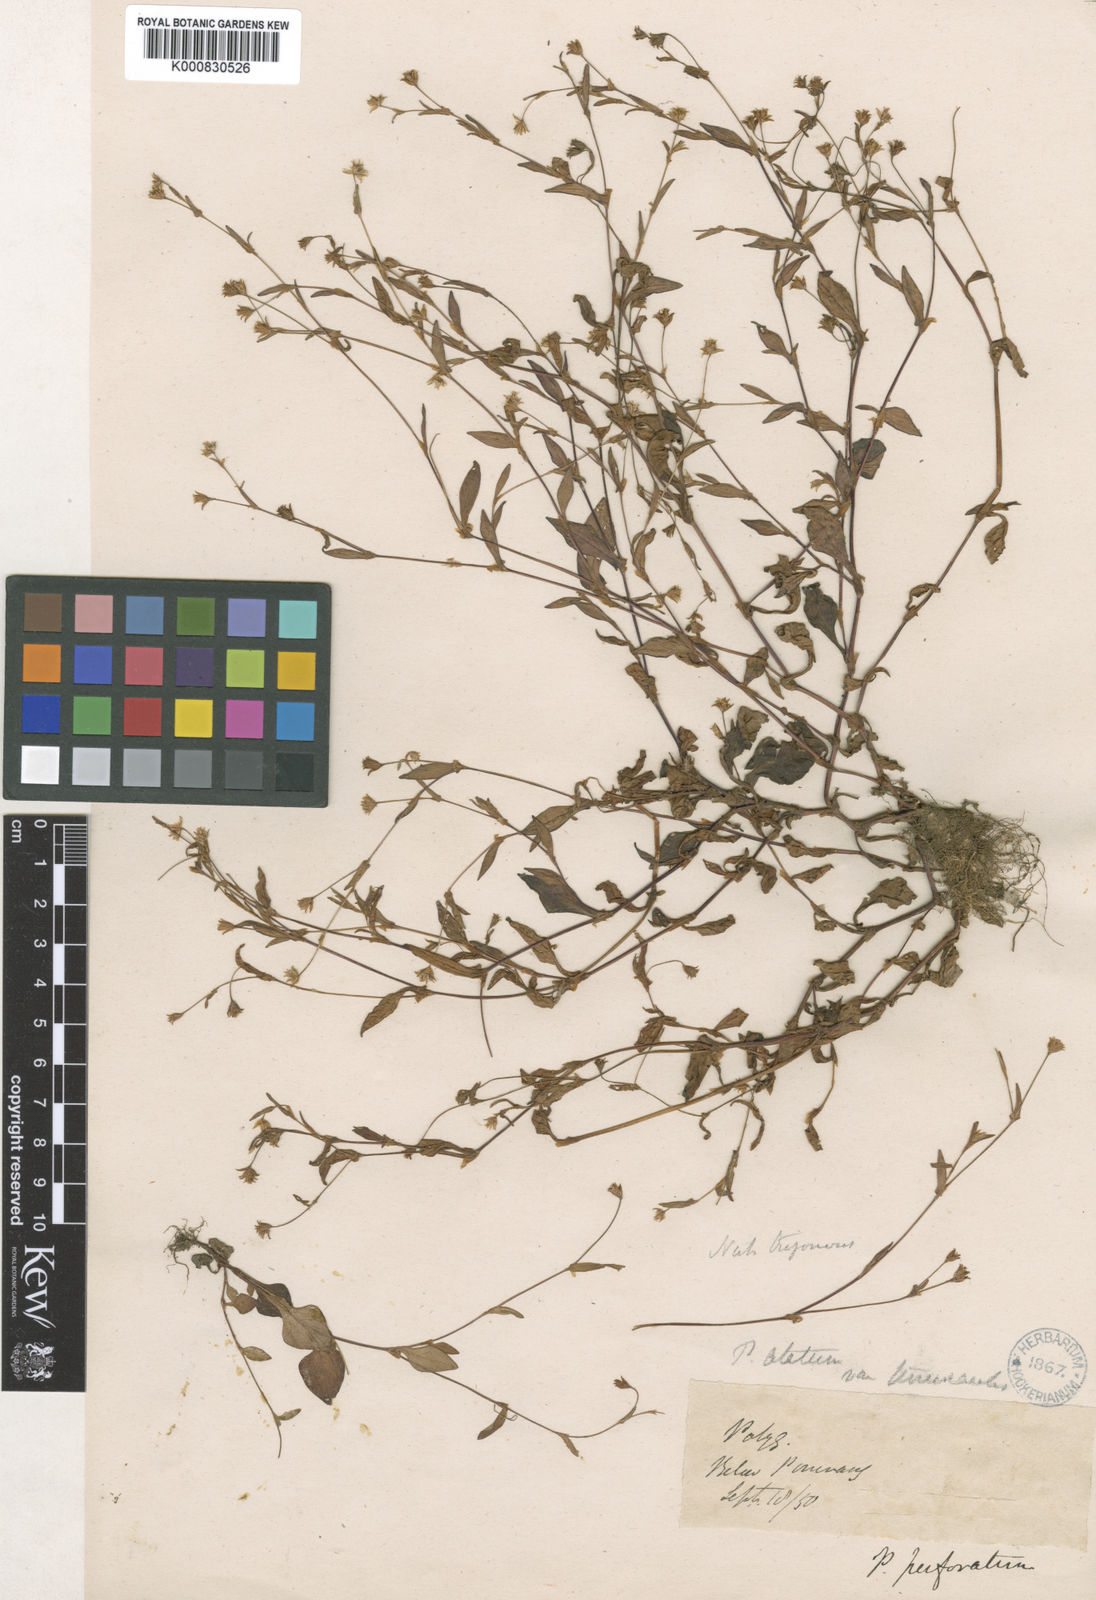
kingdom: Plantae
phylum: Tracheophyta
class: Magnoliopsida
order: Caryophyllales
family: Polygonaceae
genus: Polygonum
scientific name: Polygonum
